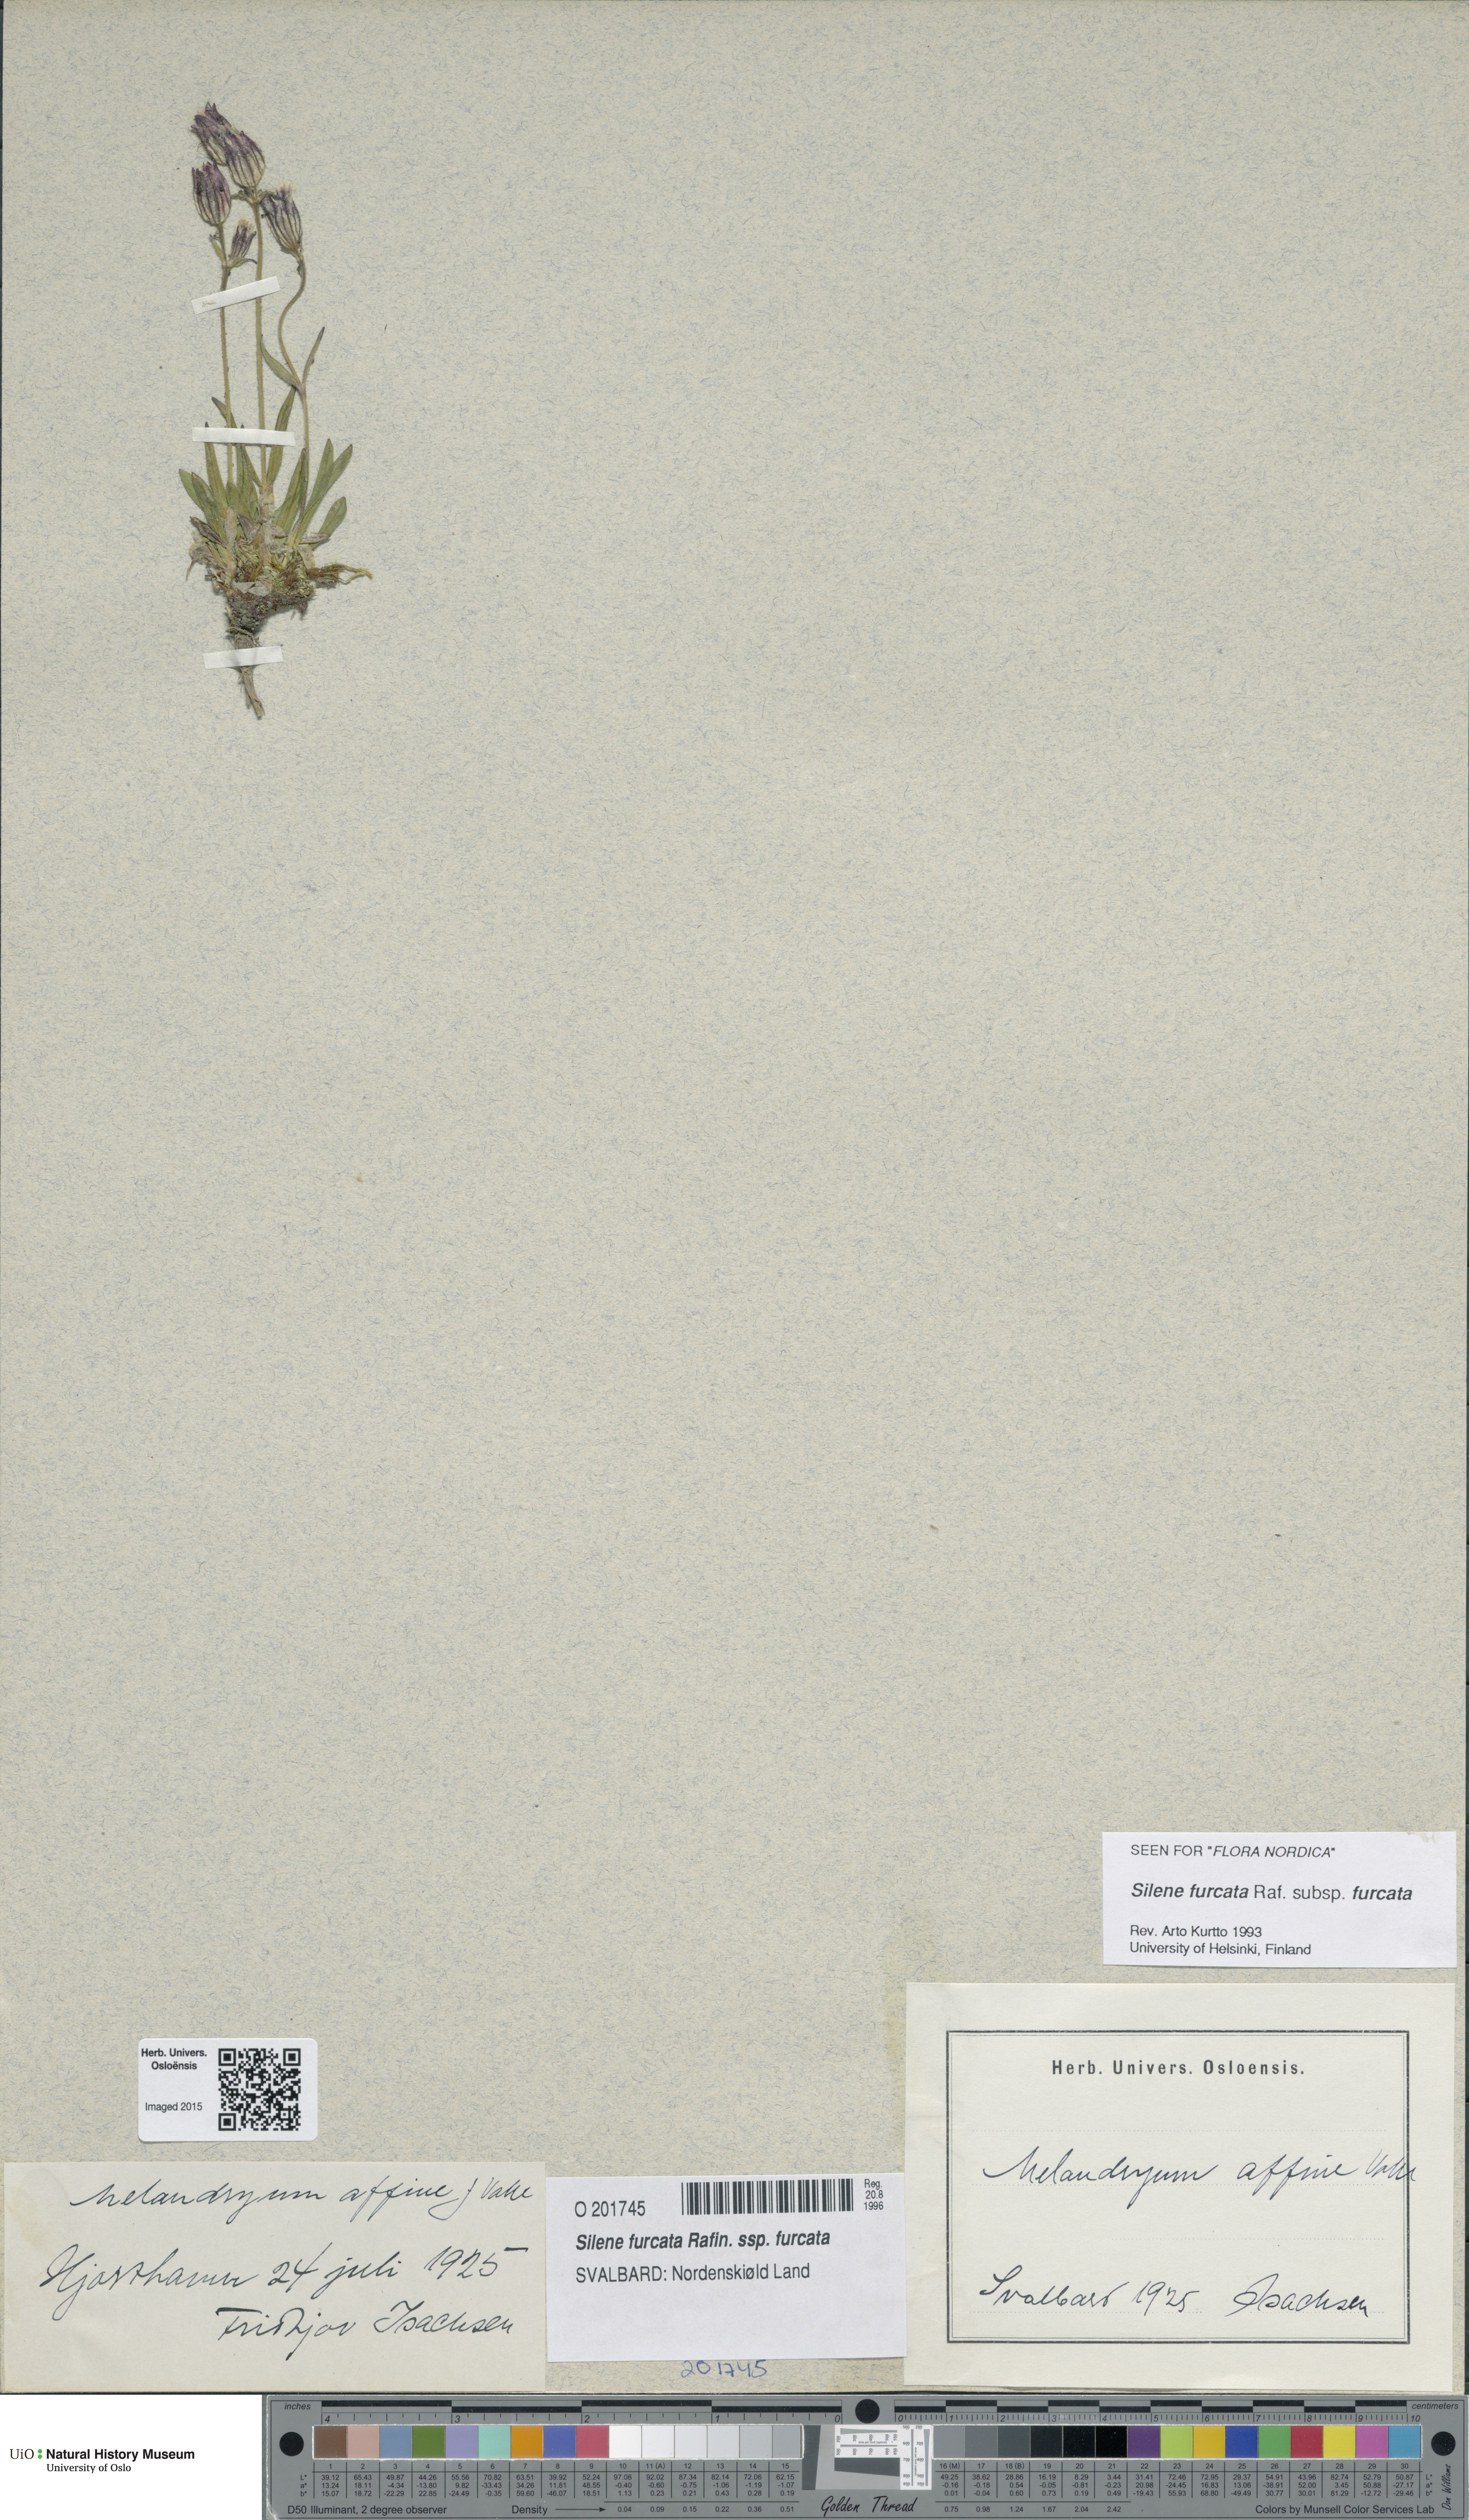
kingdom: Plantae
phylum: Tracheophyta
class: Magnoliopsida
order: Caryophyllales
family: Caryophyllaceae
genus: Silene
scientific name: Silene involucrata
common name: Greater arctic campion
